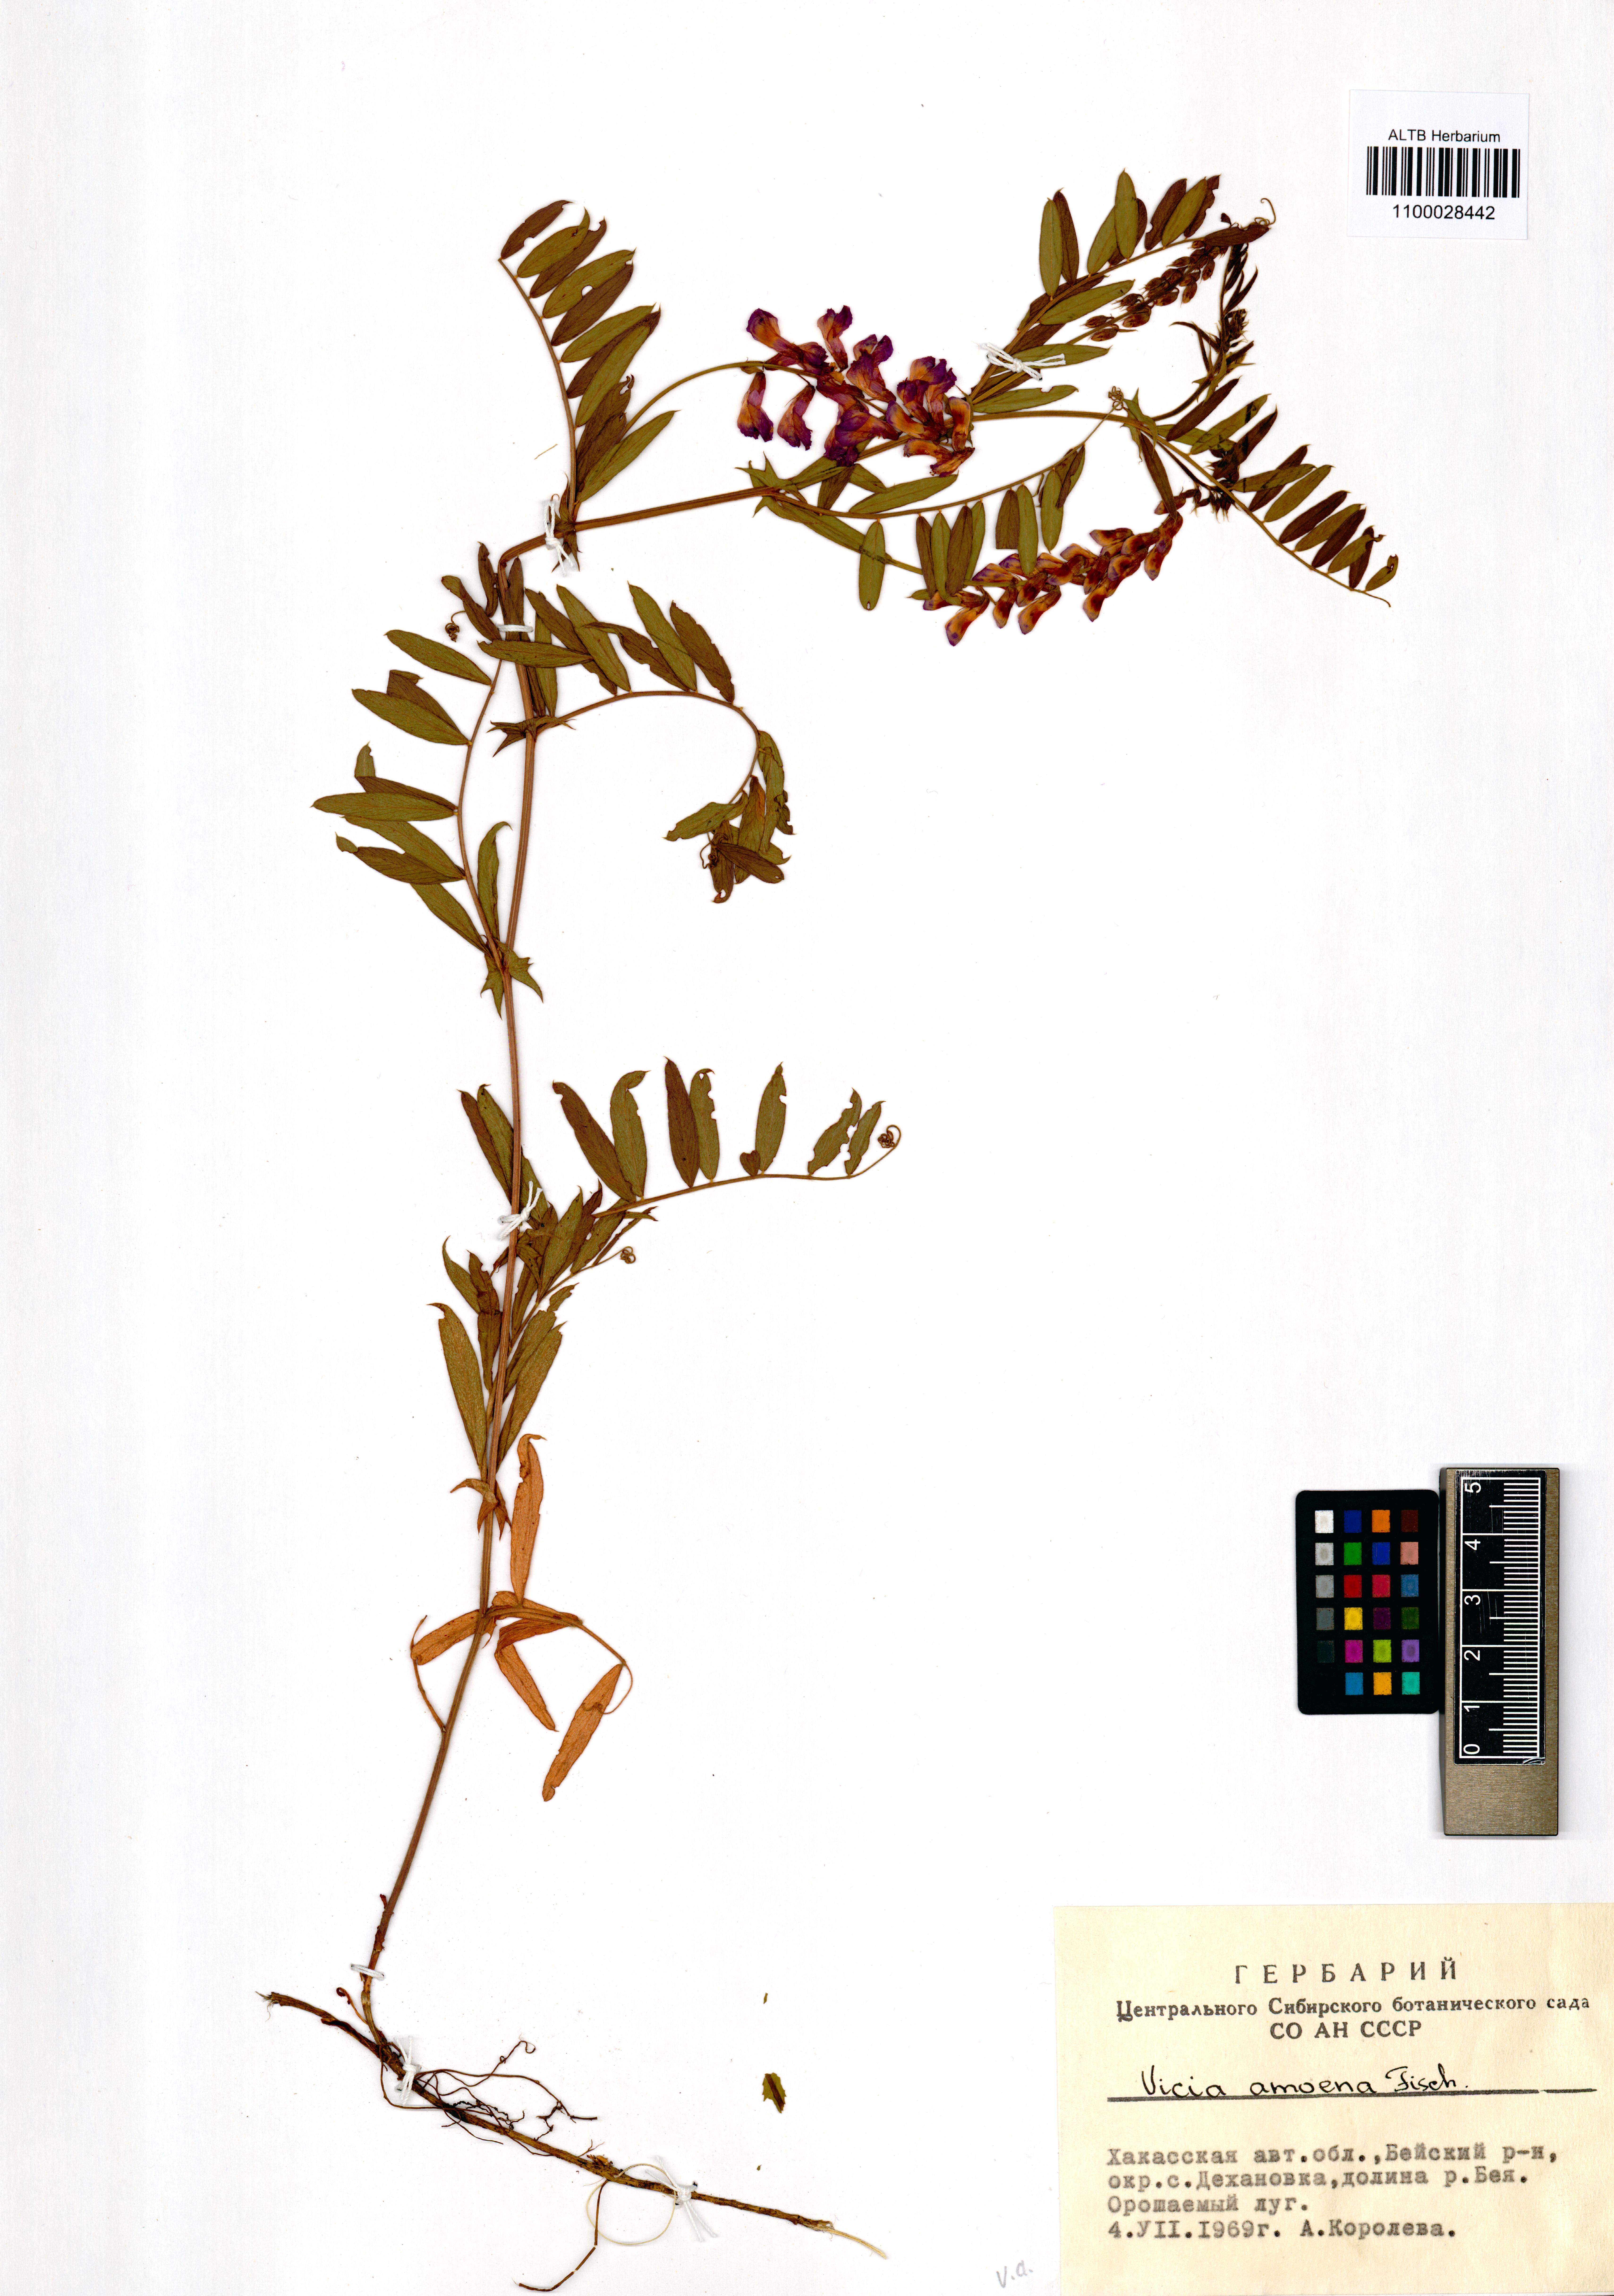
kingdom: Plantae
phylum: Tracheophyta
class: Magnoliopsida
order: Fabales
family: Fabaceae
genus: Vicia
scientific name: Vicia amoena
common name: Cheder ebs
